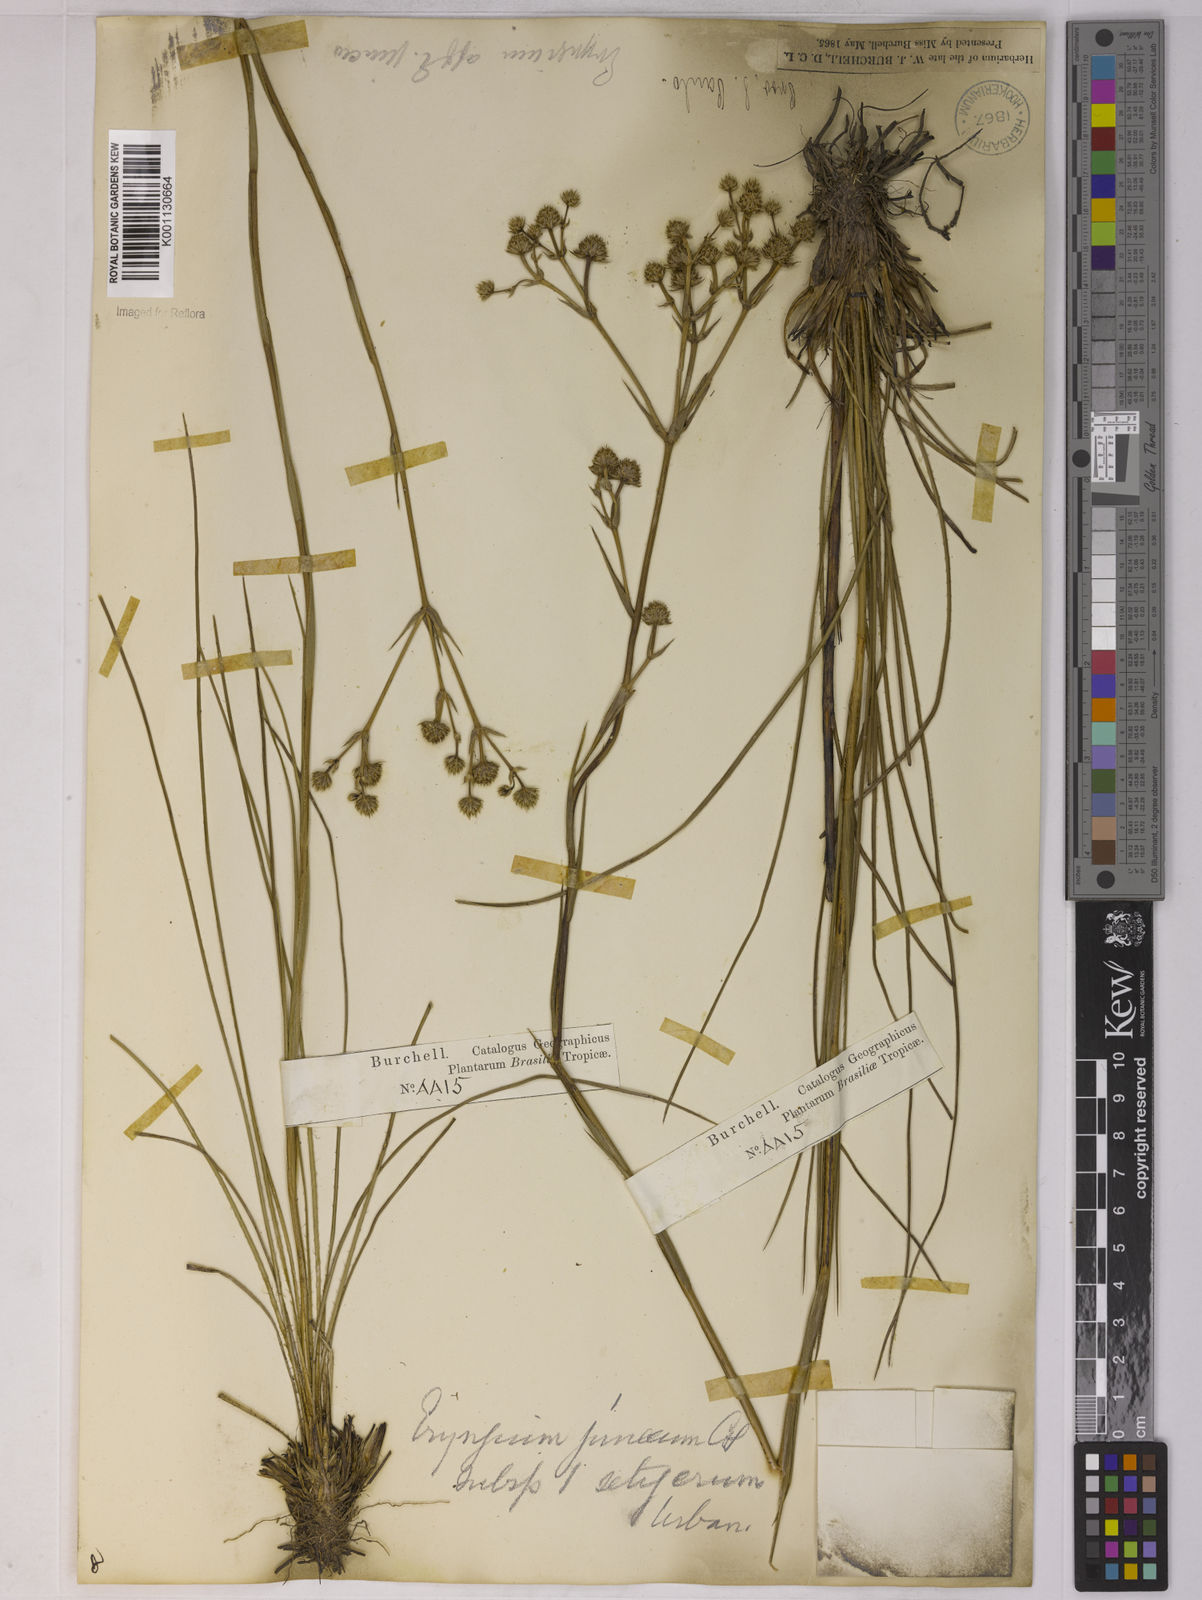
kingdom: Plantae
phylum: Tracheophyta
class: Magnoliopsida
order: Apiales
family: Apiaceae
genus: Eryngium
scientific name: Eryngium junceum
